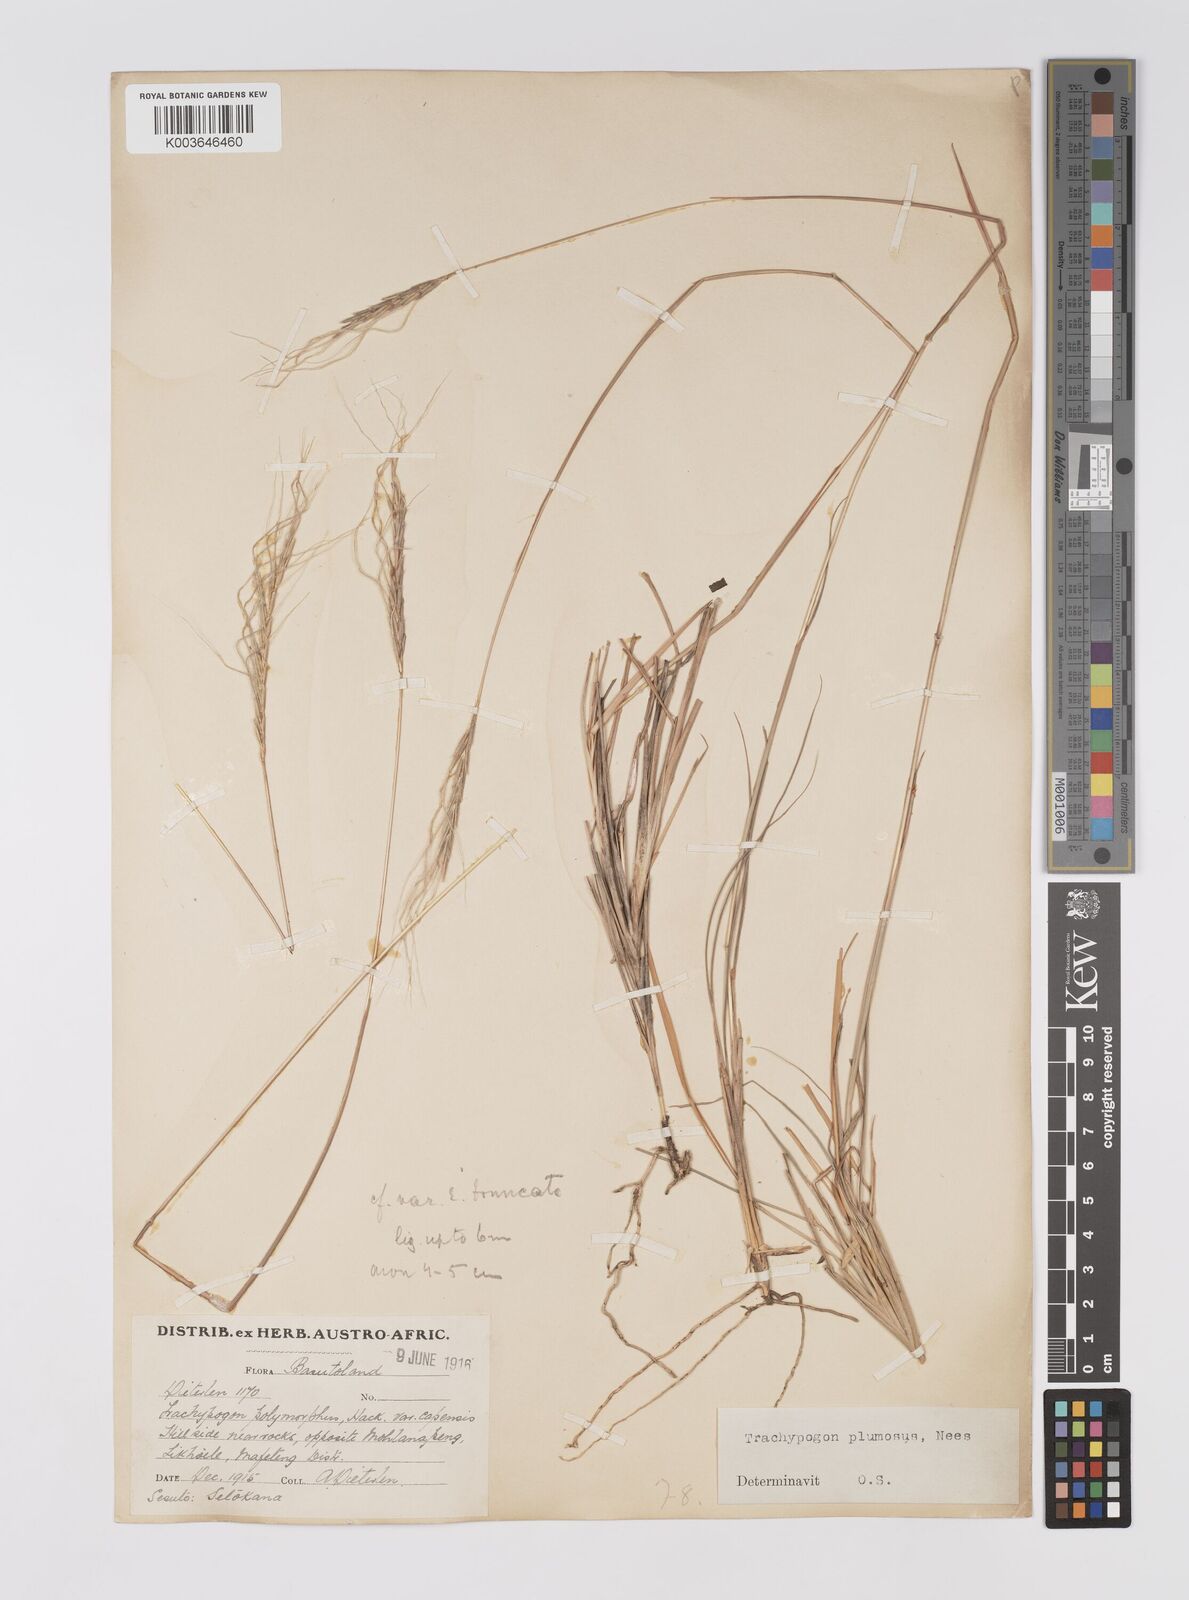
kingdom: Plantae
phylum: Tracheophyta
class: Liliopsida
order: Poales
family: Poaceae
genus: Trachypogon
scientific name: Trachypogon spicatus
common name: Crinkle-awn
